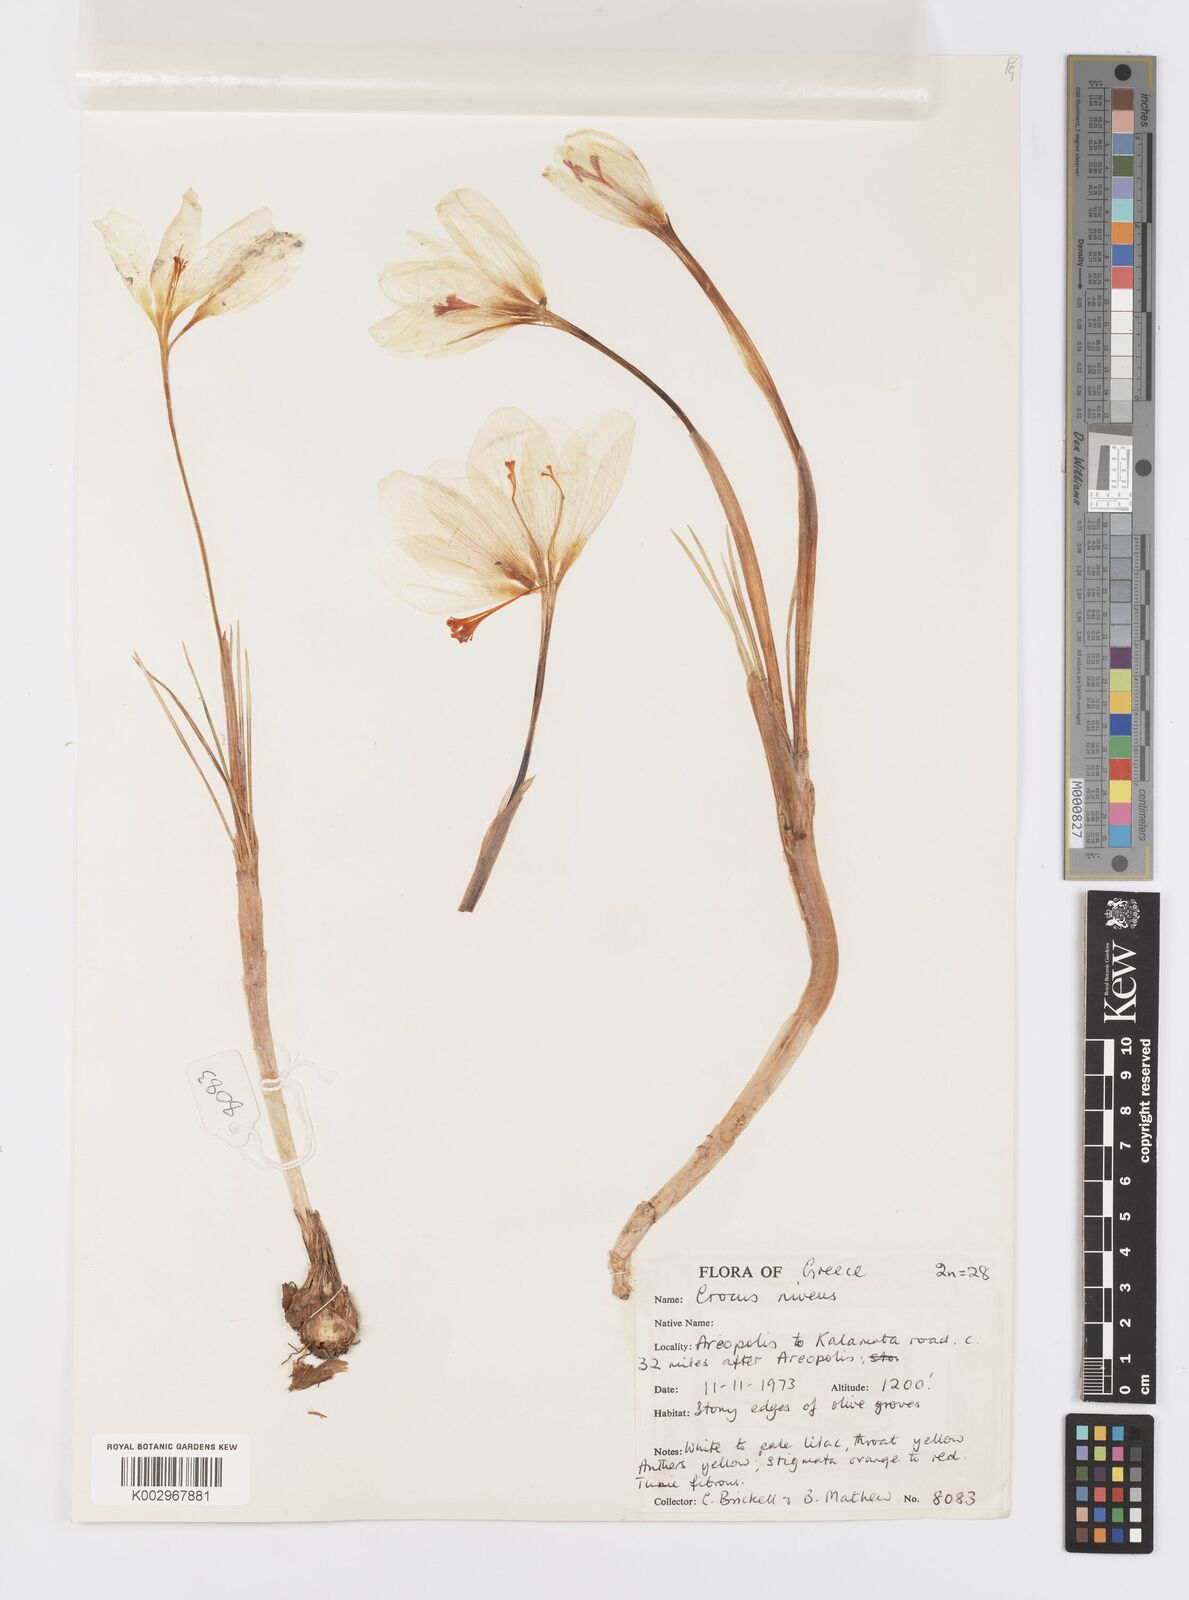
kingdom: Plantae
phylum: Tracheophyta
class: Liliopsida
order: Asparagales
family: Iridaceae
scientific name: Iridaceae
